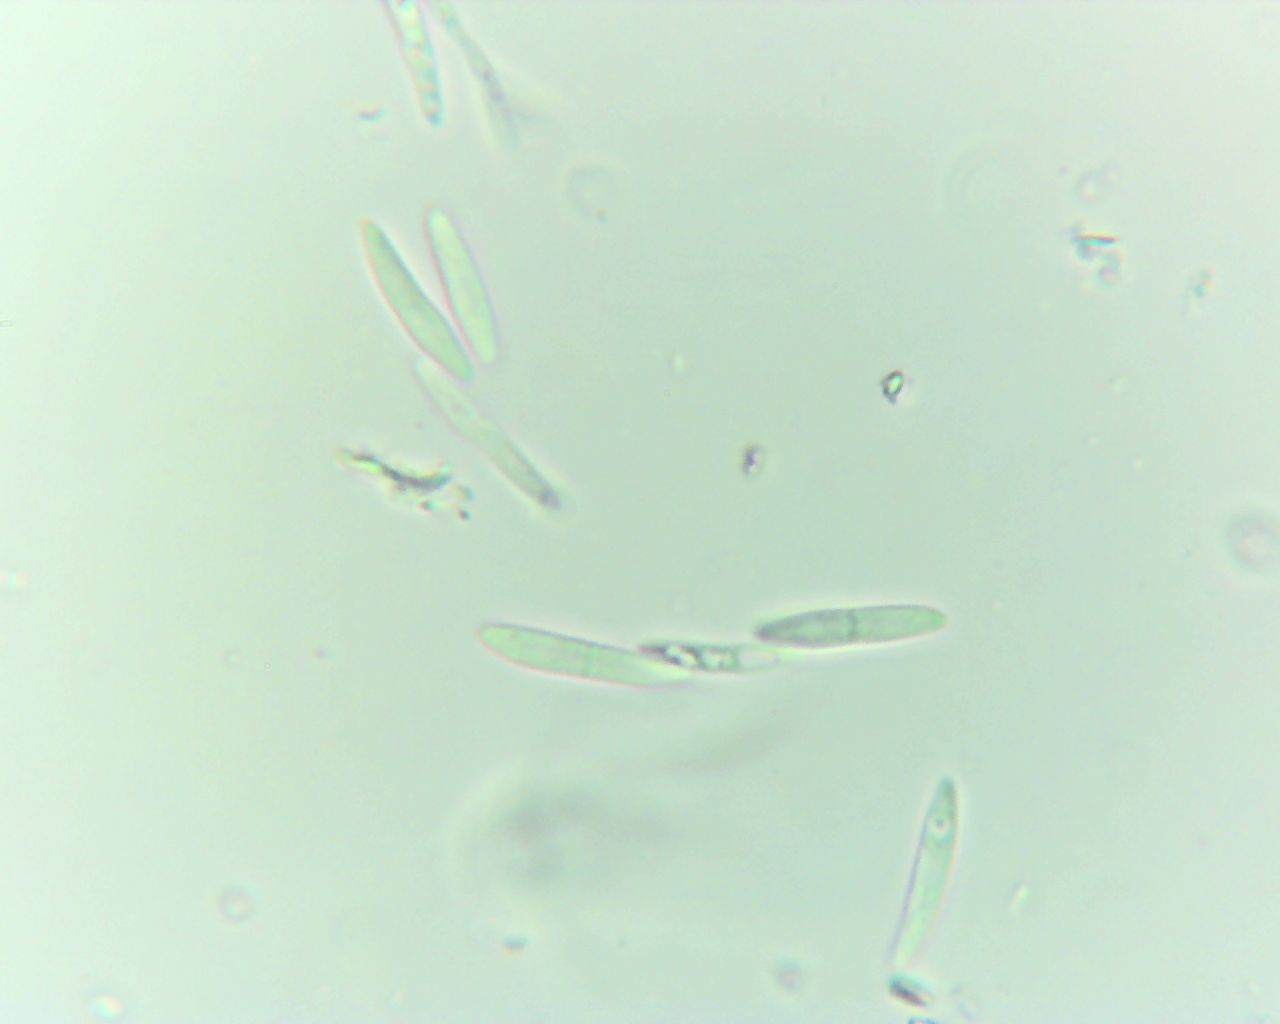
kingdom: Fungi
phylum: Ascomycota
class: Sordariomycetes
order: Diaporthales
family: Gnomoniaceae
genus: Sirococcus
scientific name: Sirococcus conigenus
